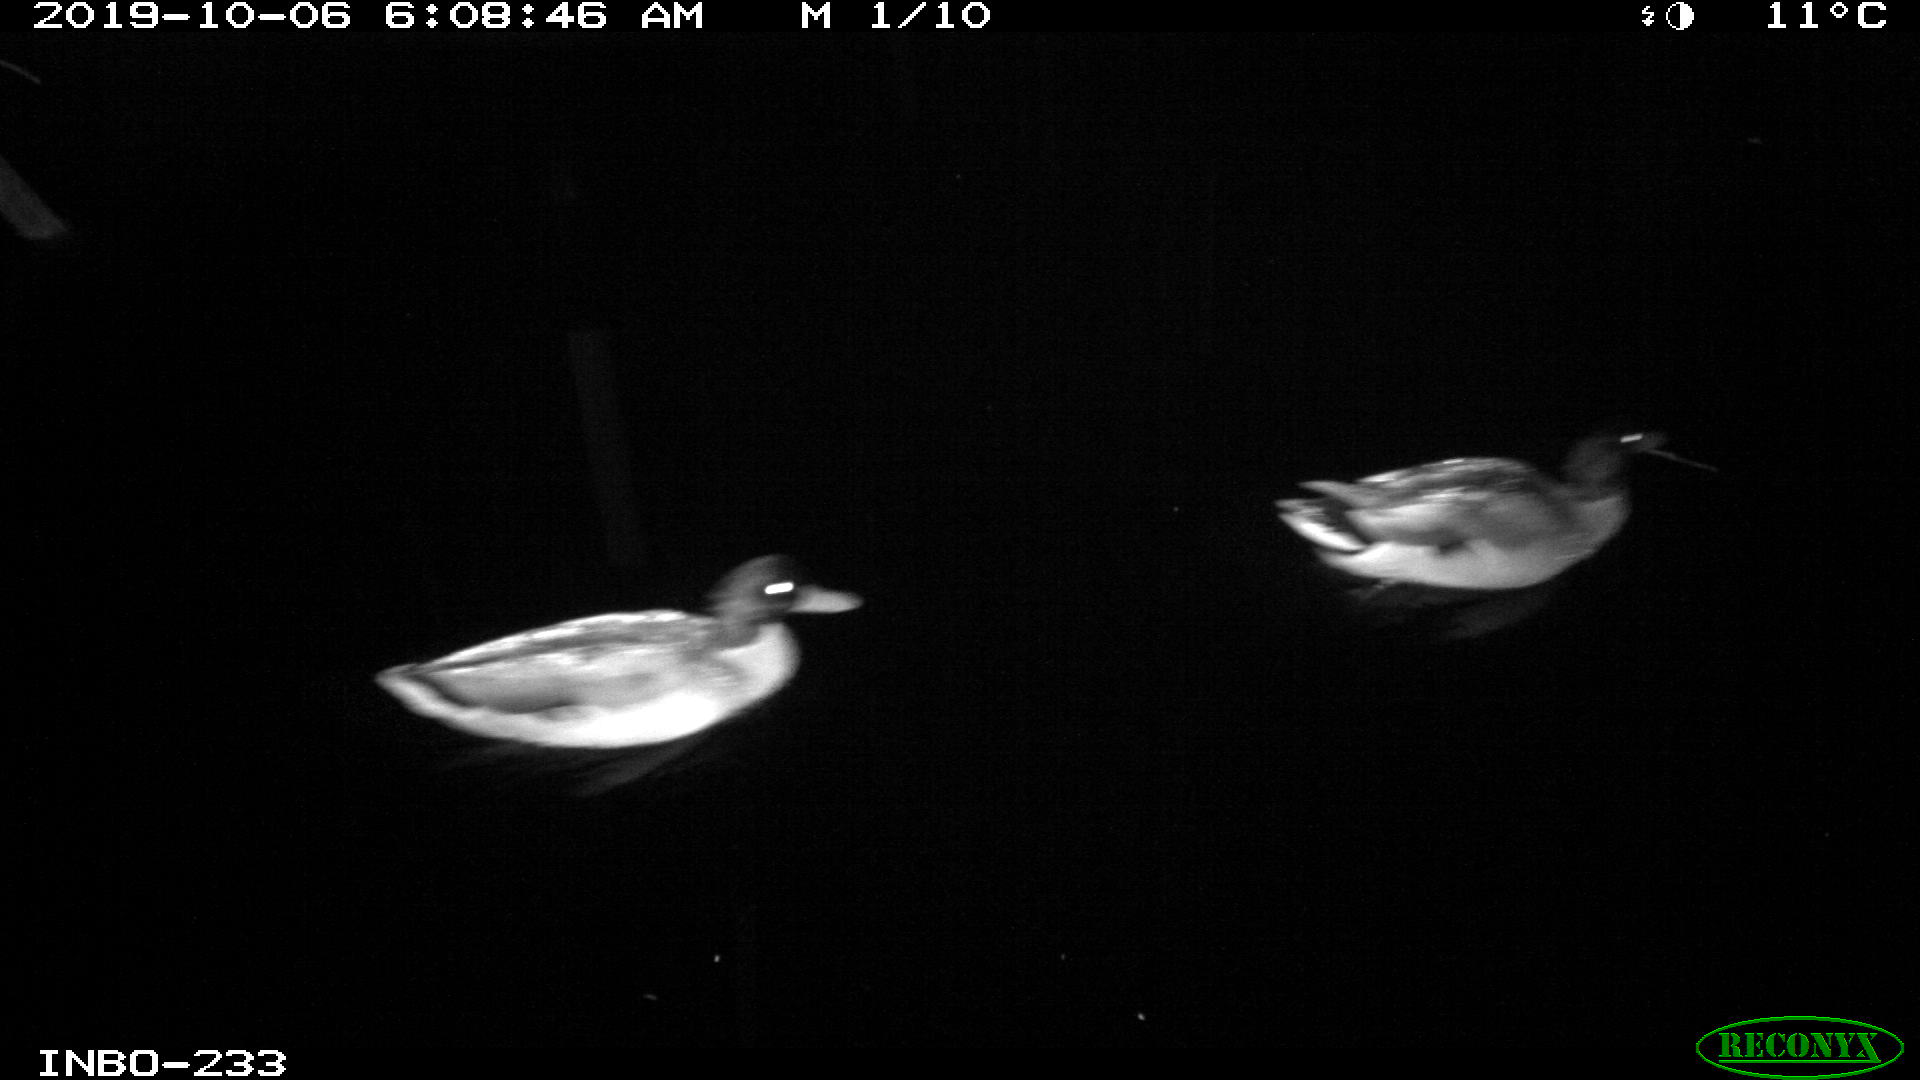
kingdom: Animalia
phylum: Chordata
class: Aves
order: Anseriformes
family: Anatidae
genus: Anas
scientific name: Anas platyrhynchos
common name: Mallard
